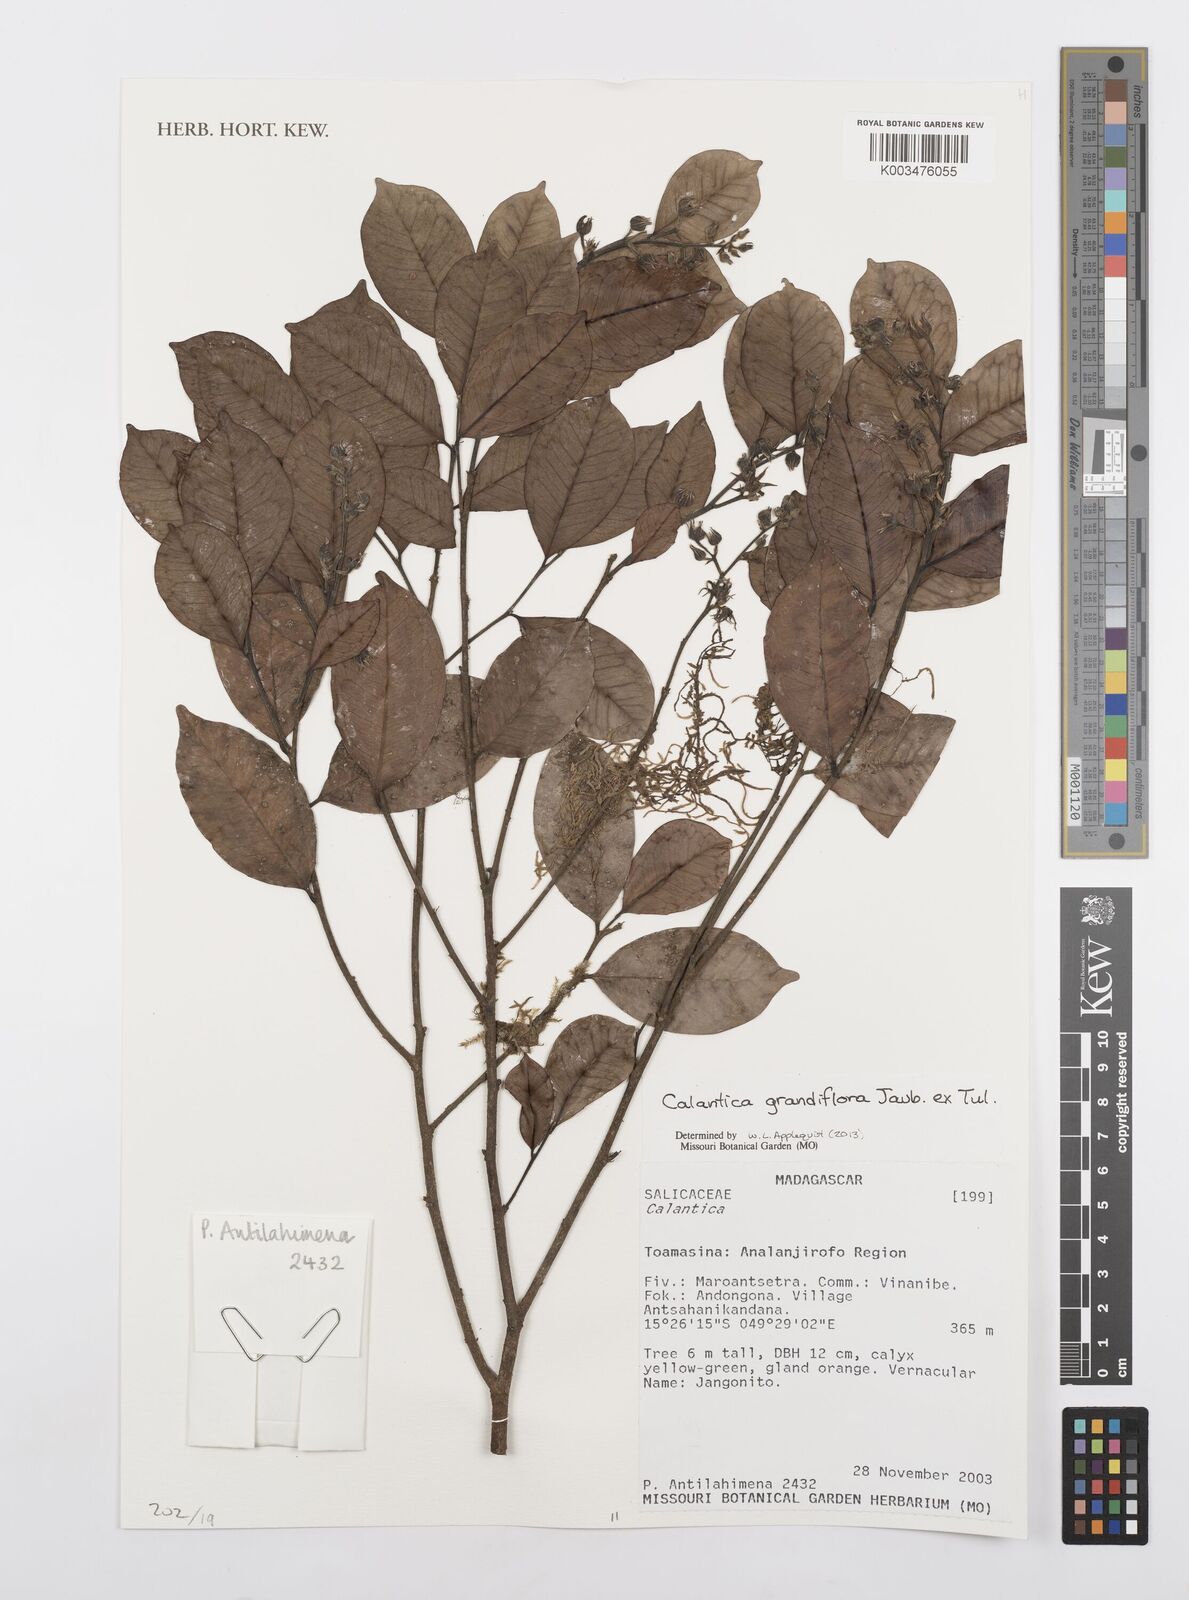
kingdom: Plantae
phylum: Tracheophyta
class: Magnoliopsida
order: Malpighiales
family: Salicaceae
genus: Calantica
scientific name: Calantica grandiflora
